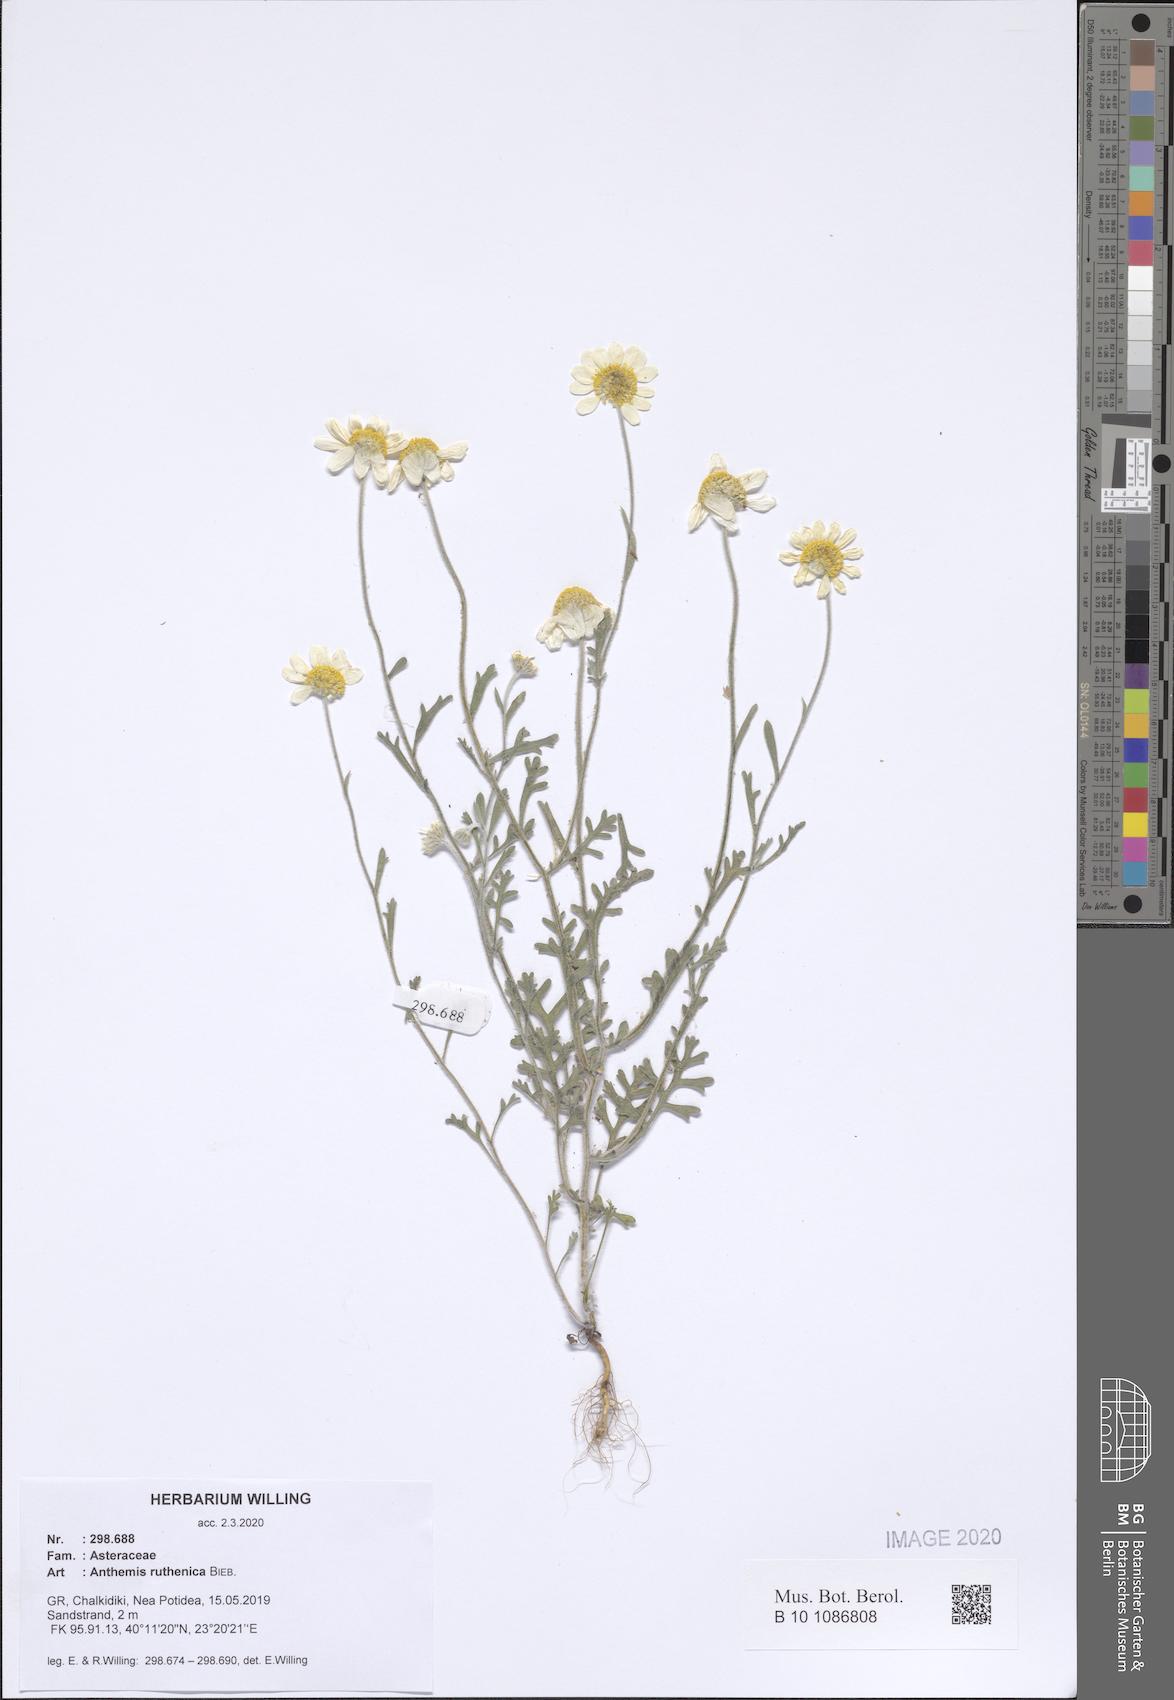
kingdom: Plantae
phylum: Tracheophyta
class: Magnoliopsida
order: Asterales
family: Asteraceae
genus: Anthemis
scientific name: Anthemis ruthenica
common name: Eastern chamomile
